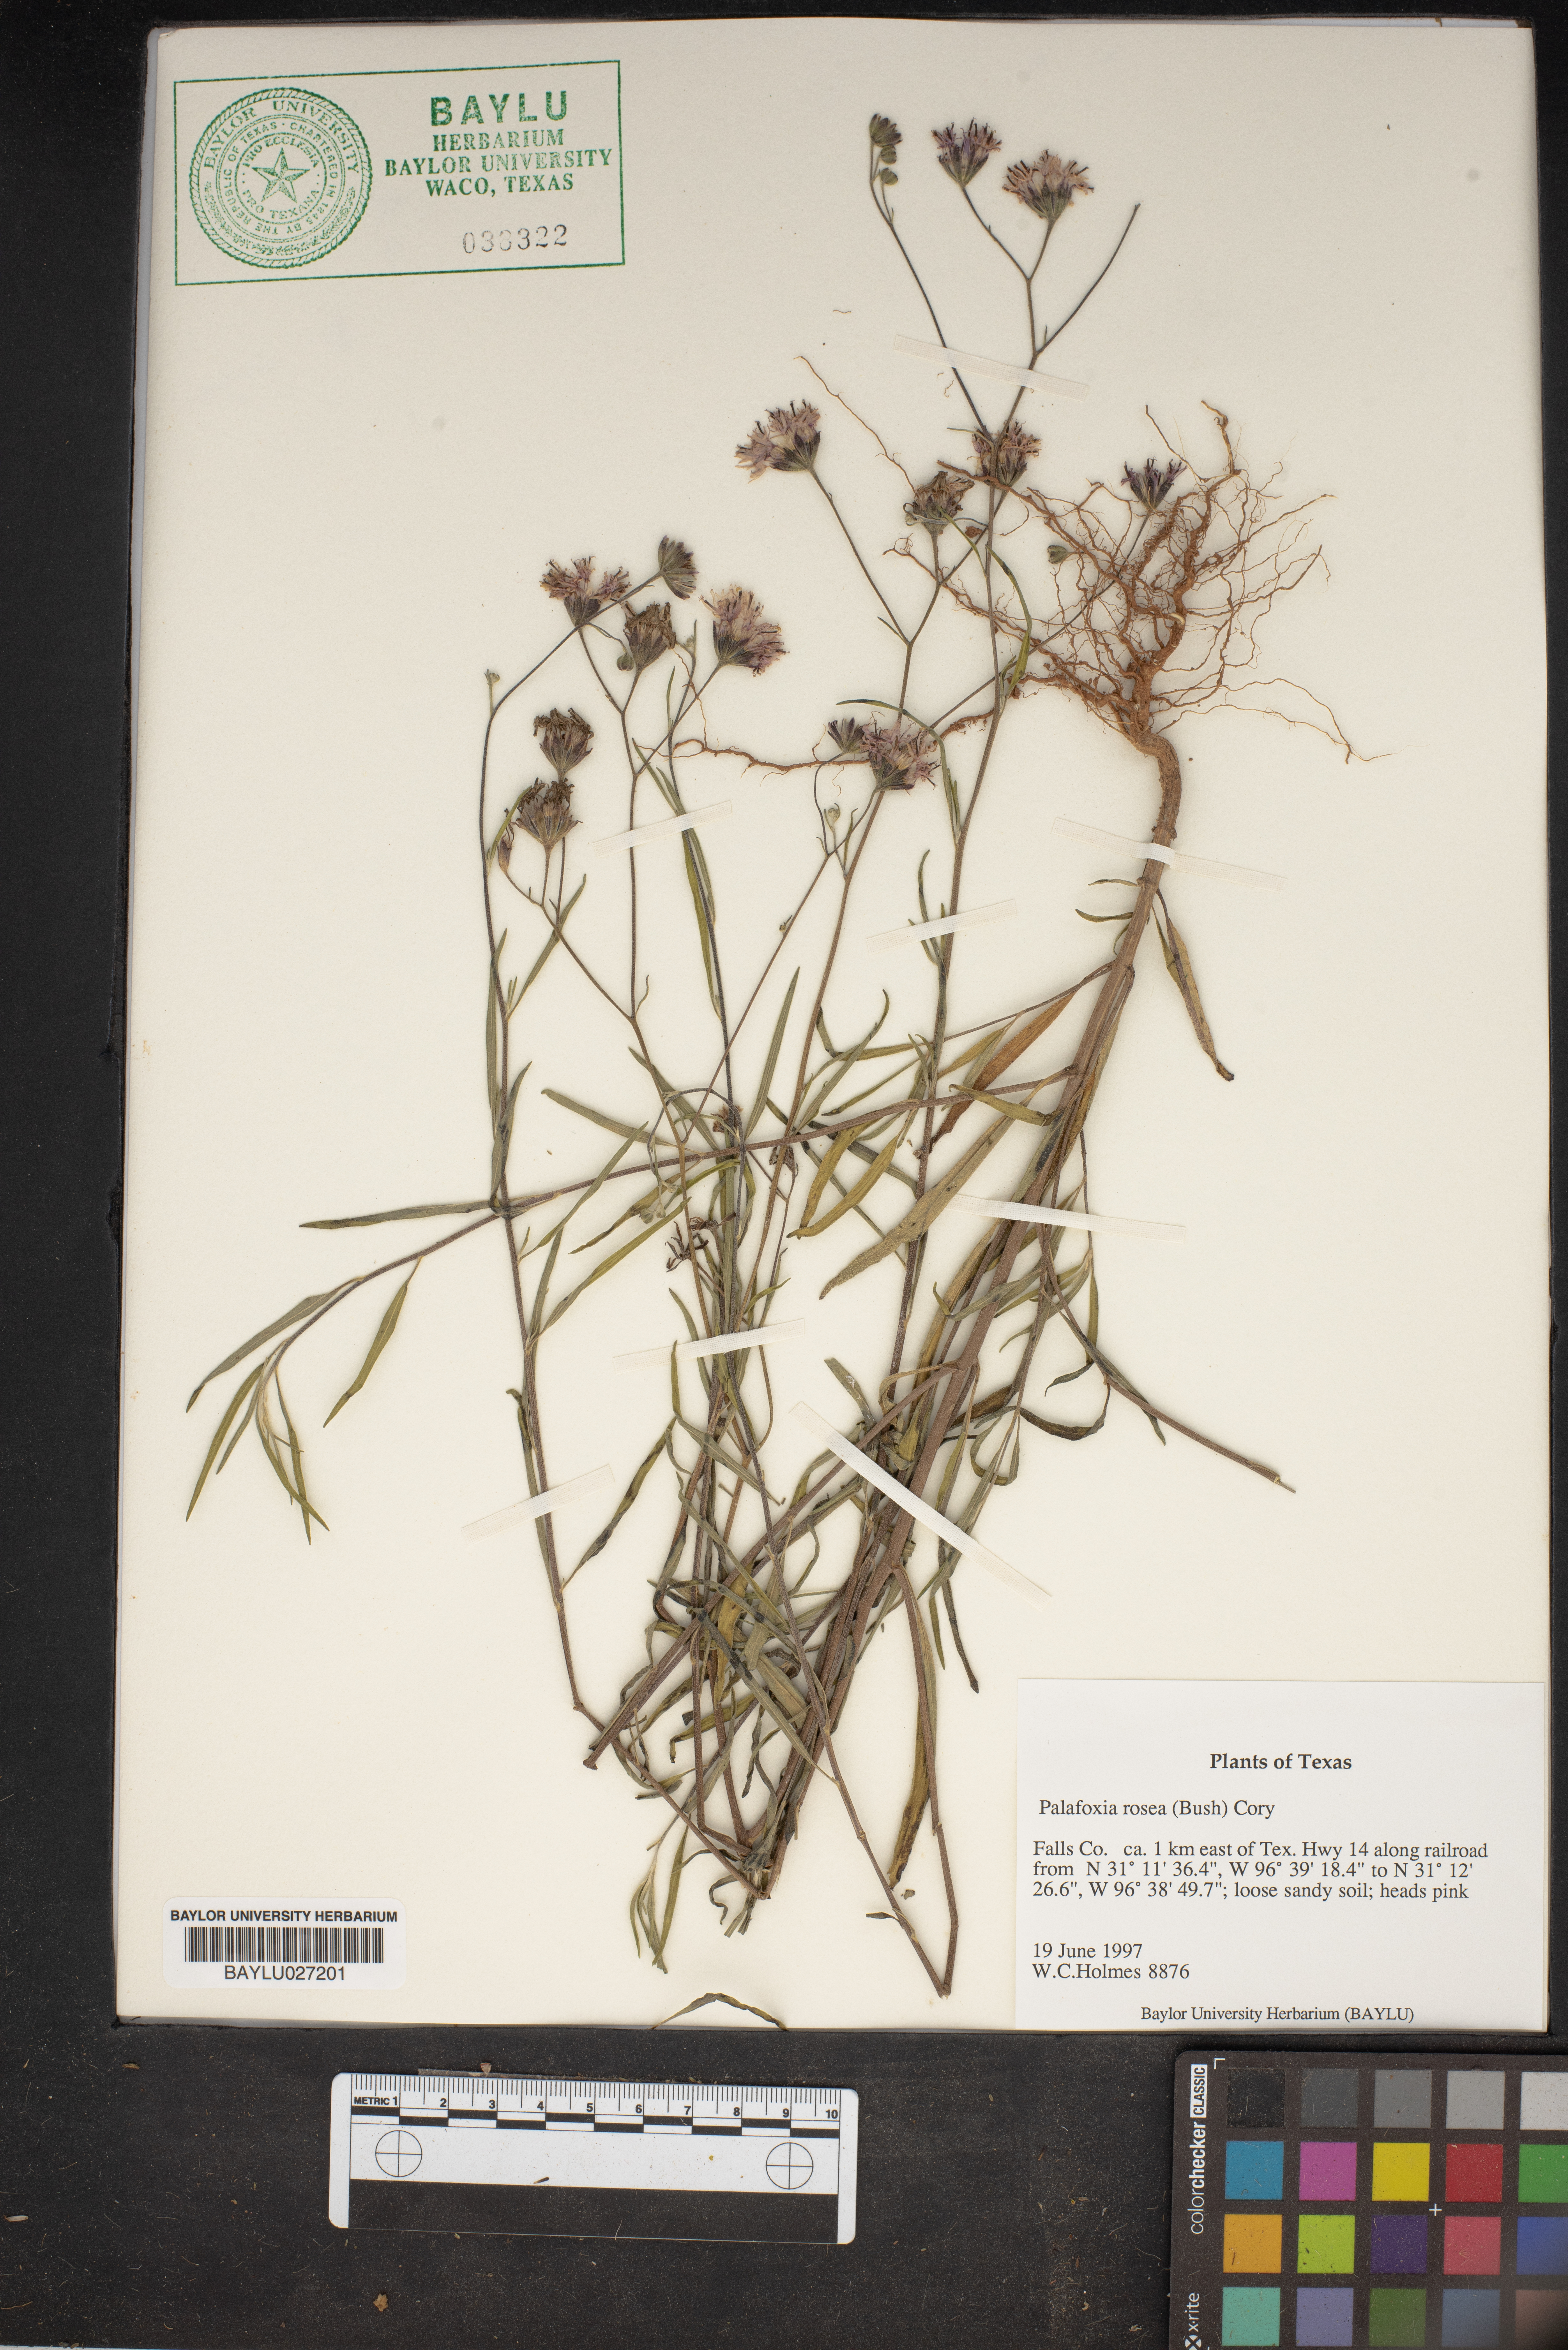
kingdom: Plantae
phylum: Tracheophyta
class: Magnoliopsida
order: Asterales
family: Asteraceae
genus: Palafoxia
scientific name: Palafoxia rosea
